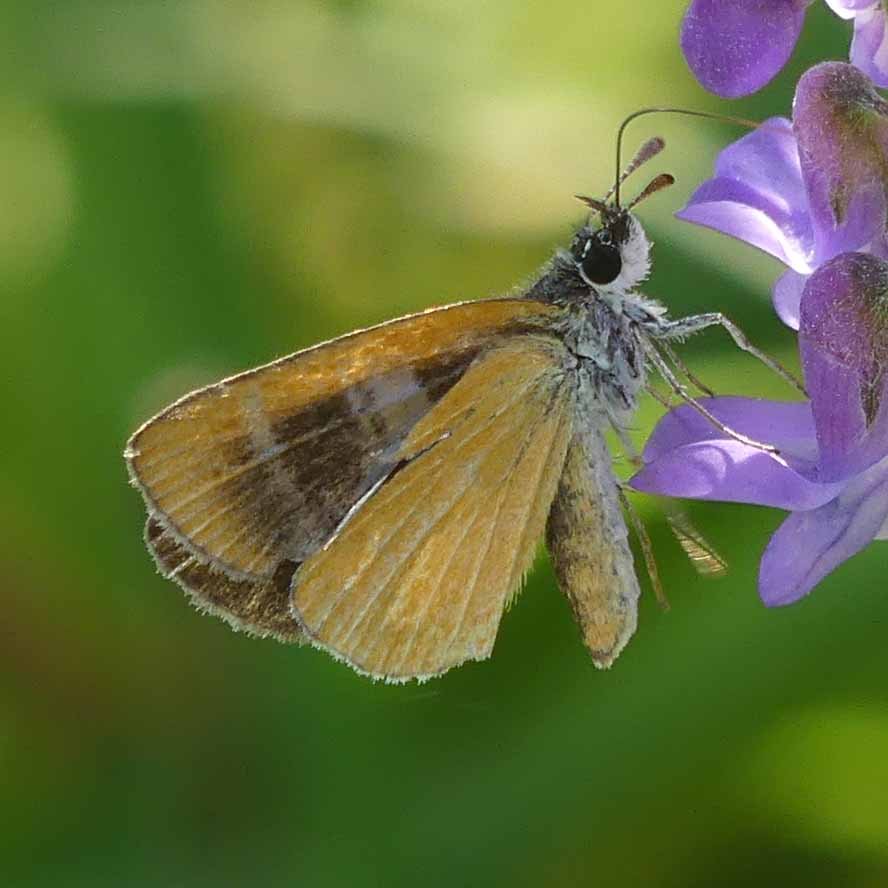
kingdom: Animalia
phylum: Arthropoda
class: Insecta
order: Lepidoptera
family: Hesperiidae
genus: Ancyloxypha
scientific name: Ancyloxypha numitor
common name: Least Skipper
